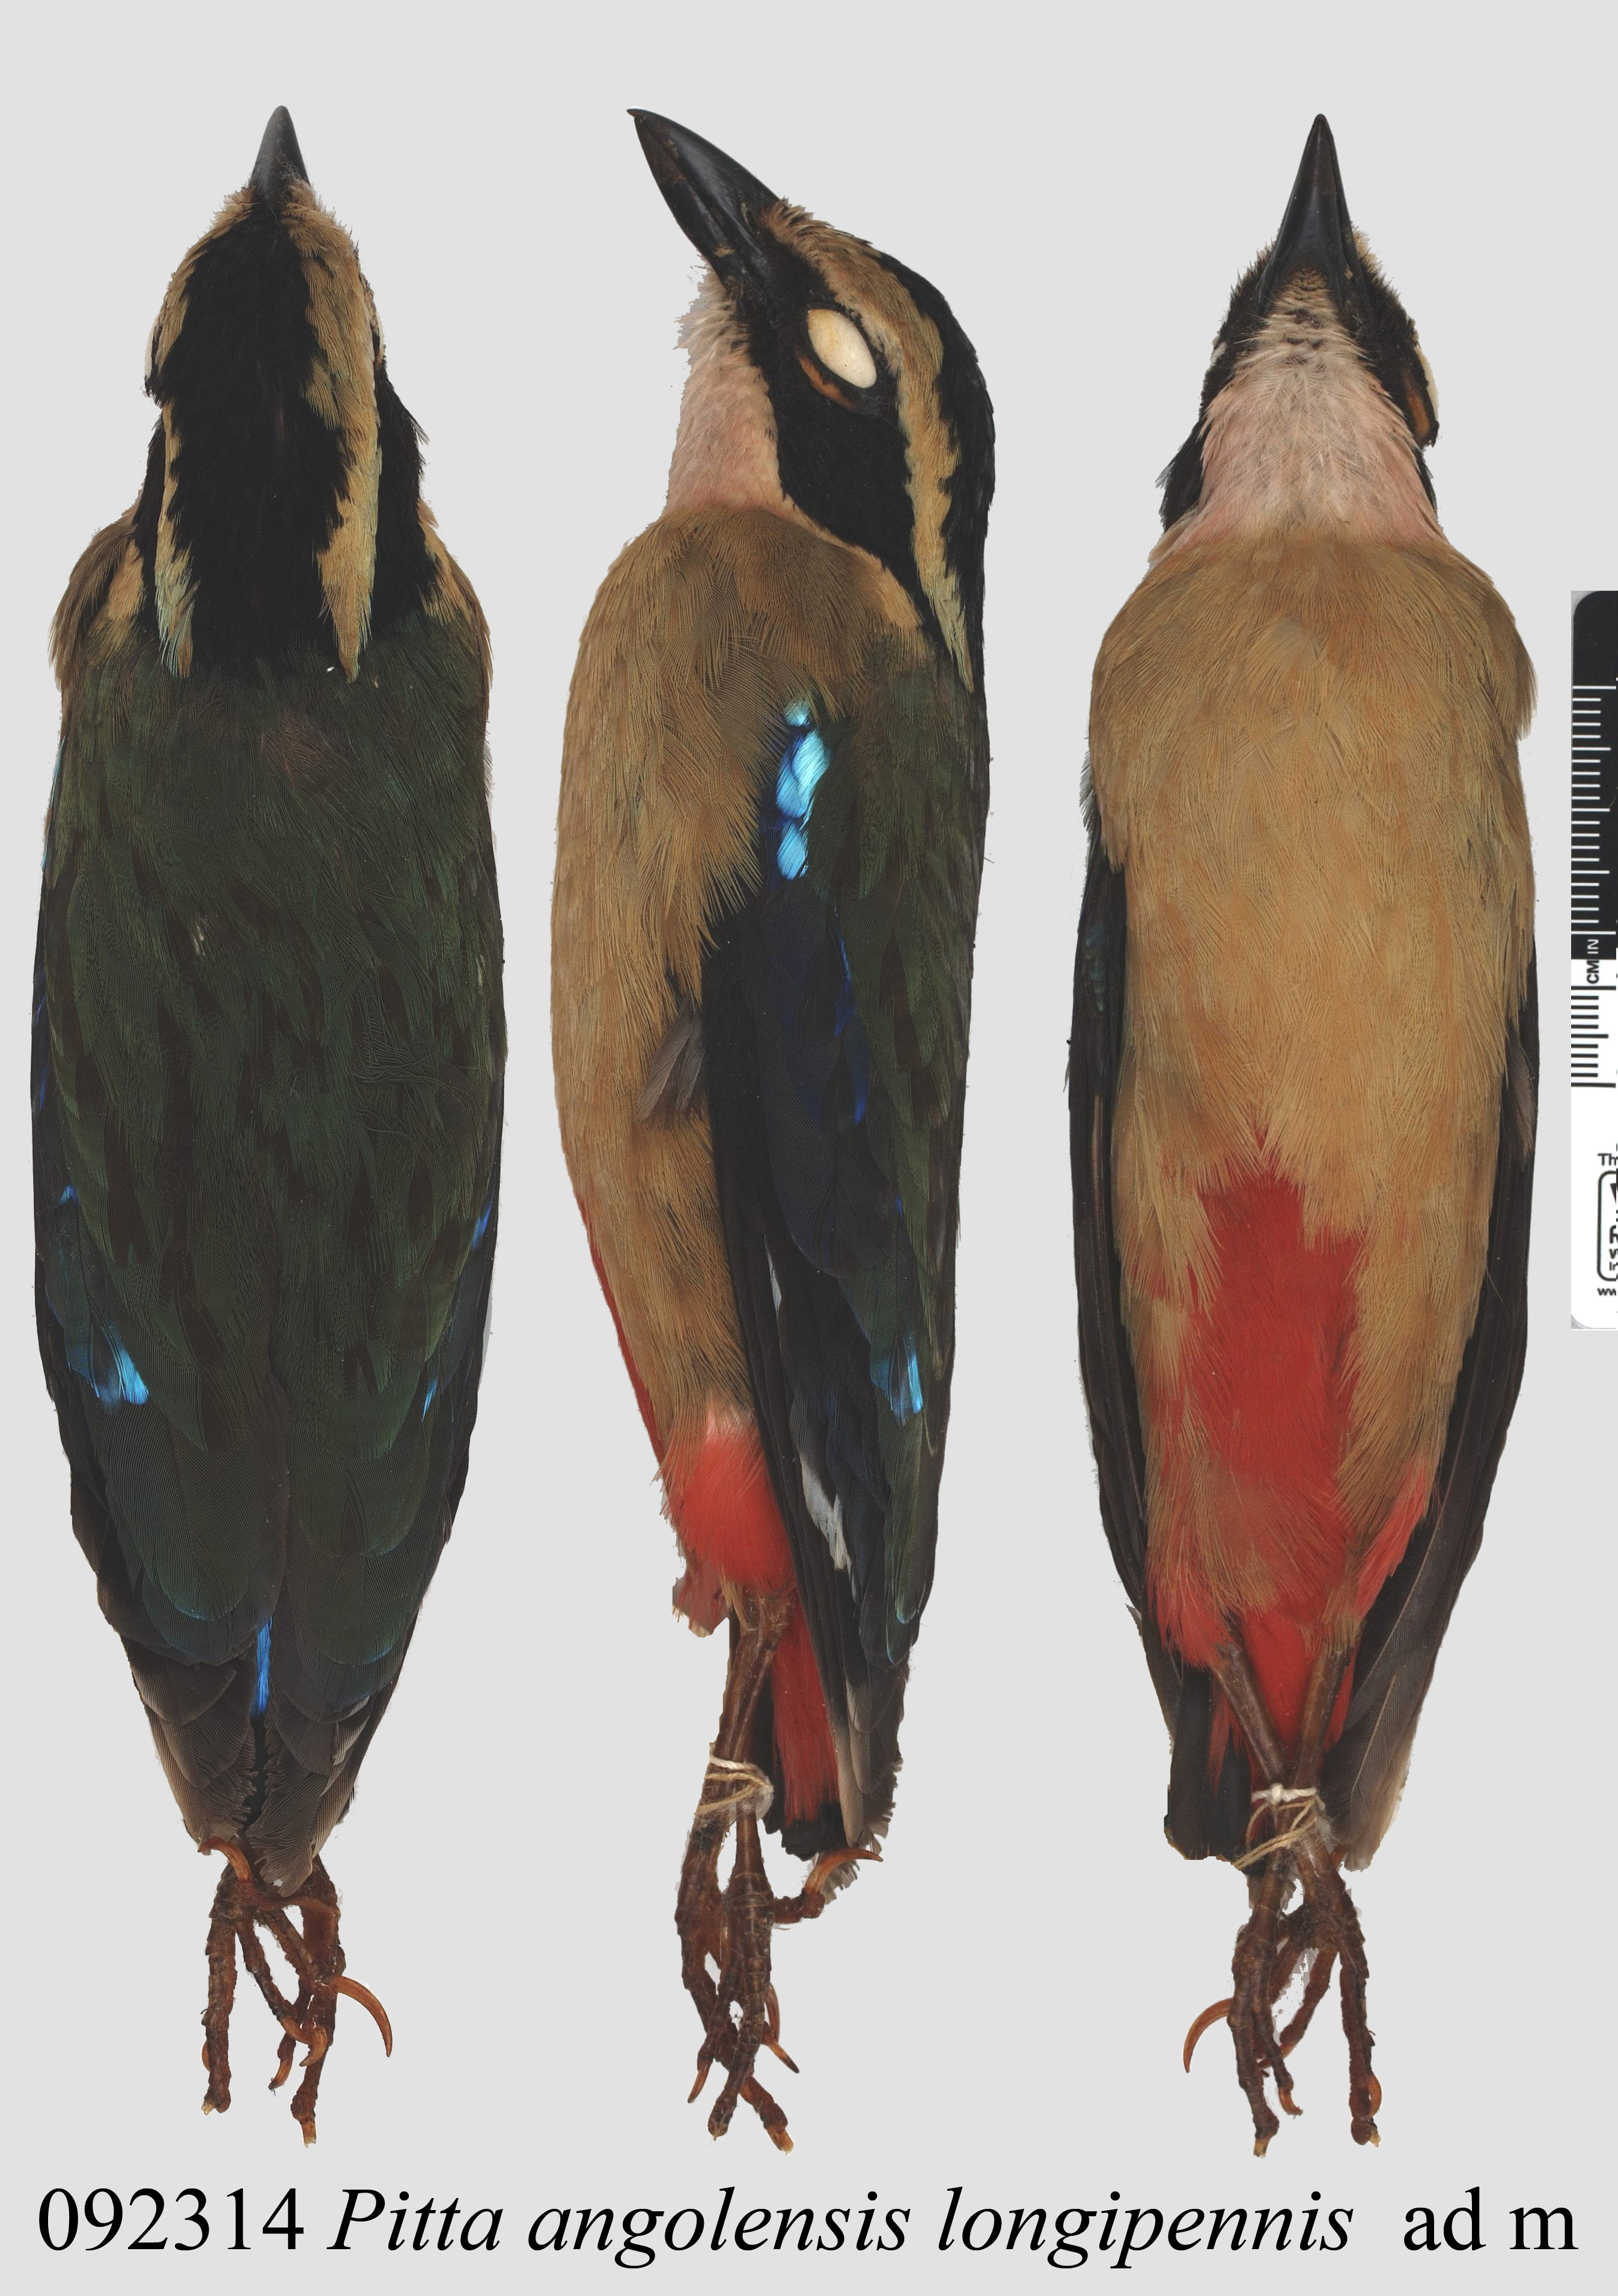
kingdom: Animalia
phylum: Chordata
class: Aves
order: Passeriformes
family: Pittidae
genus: Pitta
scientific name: Pitta angolensis
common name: African pitta
